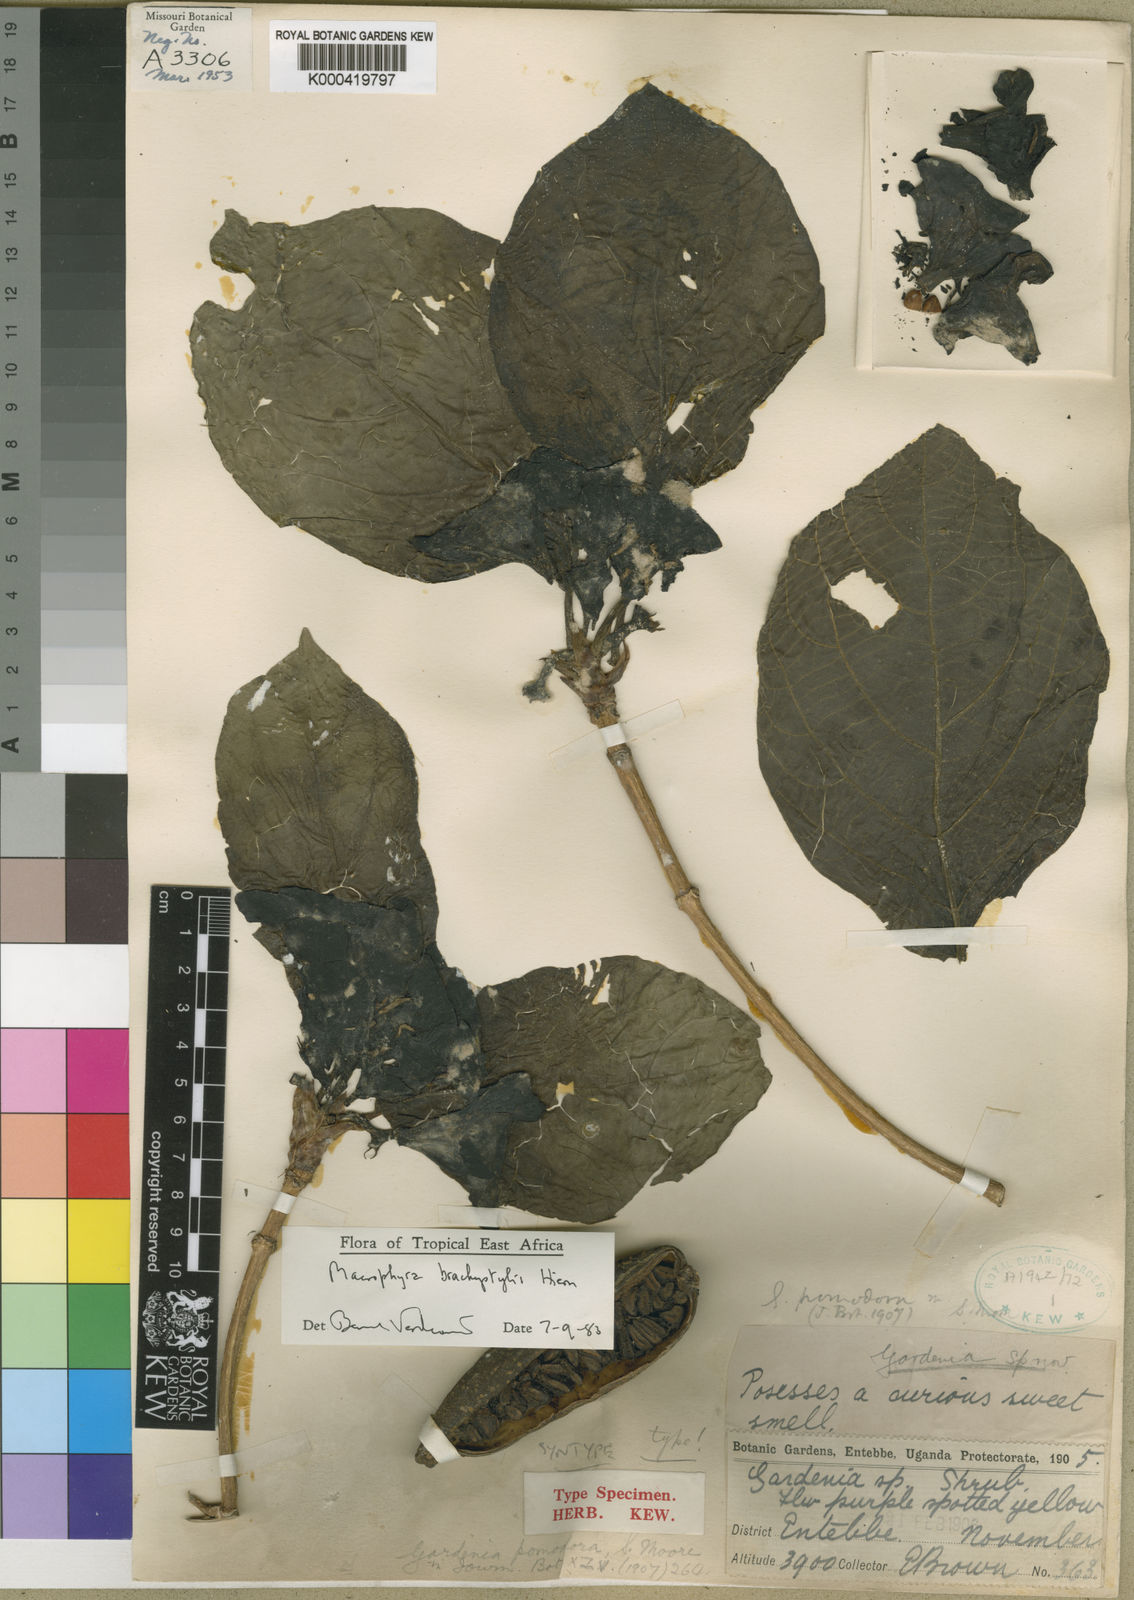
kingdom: Plantae
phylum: Tracheophyta
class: Magnoliopsida
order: Gentianales
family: Rubiaceae
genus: Macrosphyra
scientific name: Macrosphyra brachystylis
